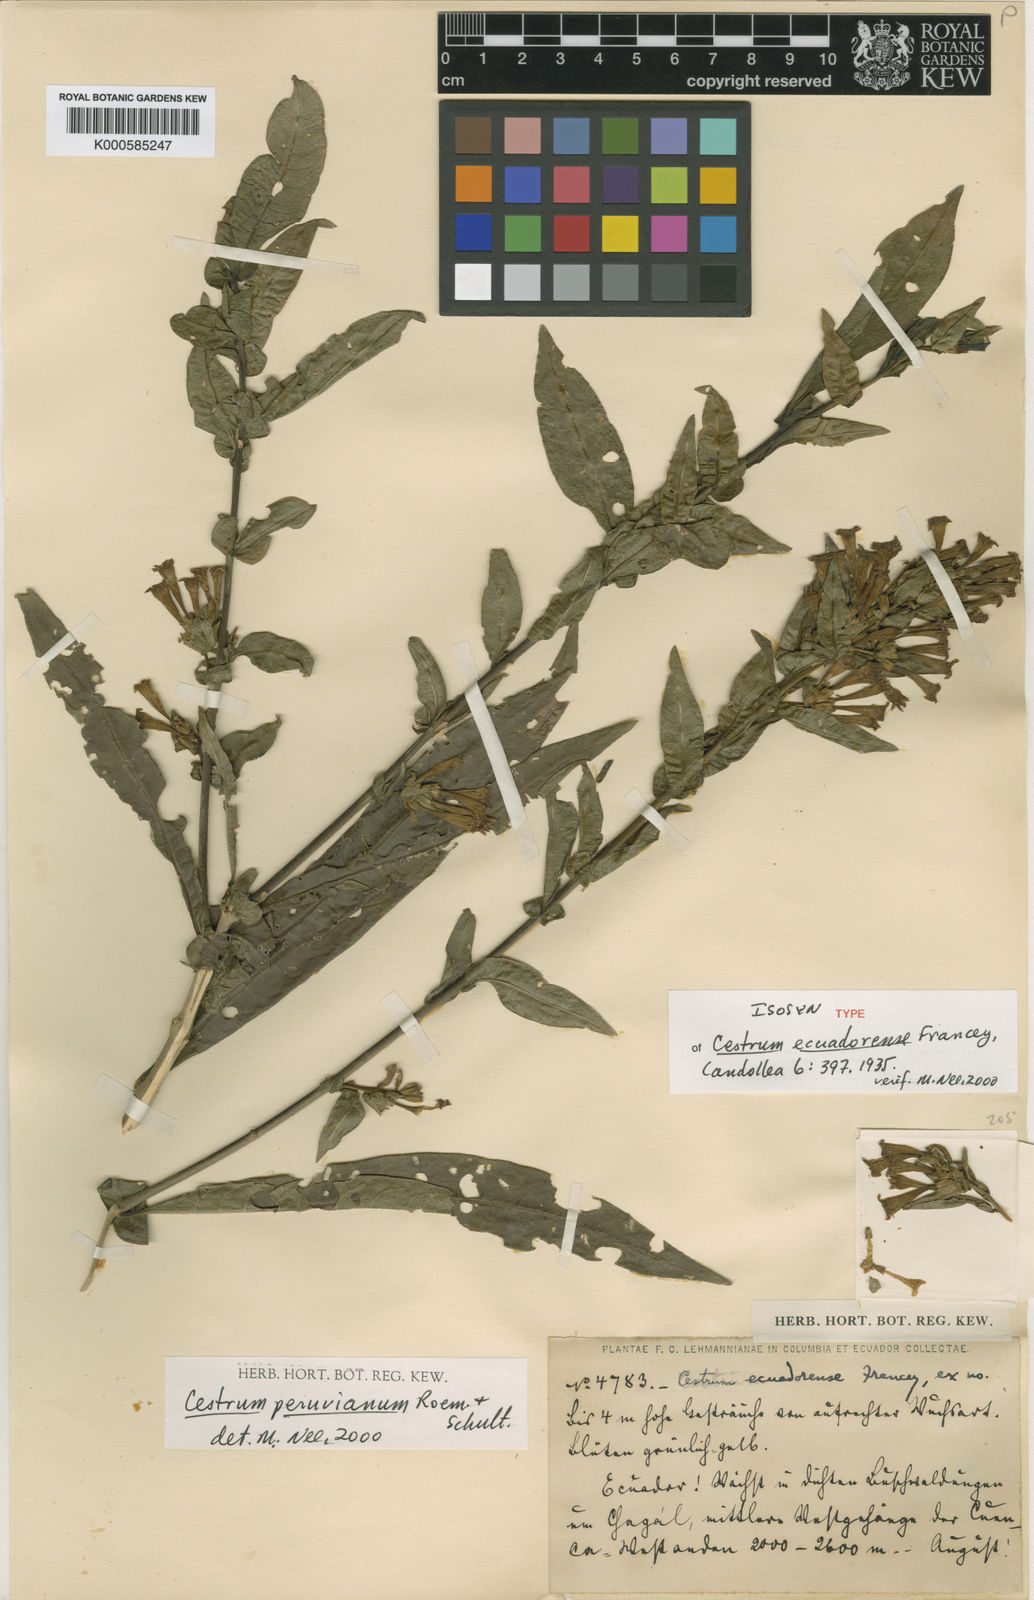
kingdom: Plantae
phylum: Tracheophyta
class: Magnoliopsida
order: Solanales
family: Solanaceae
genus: Cestrum
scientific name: Cestrum ecuadorense
